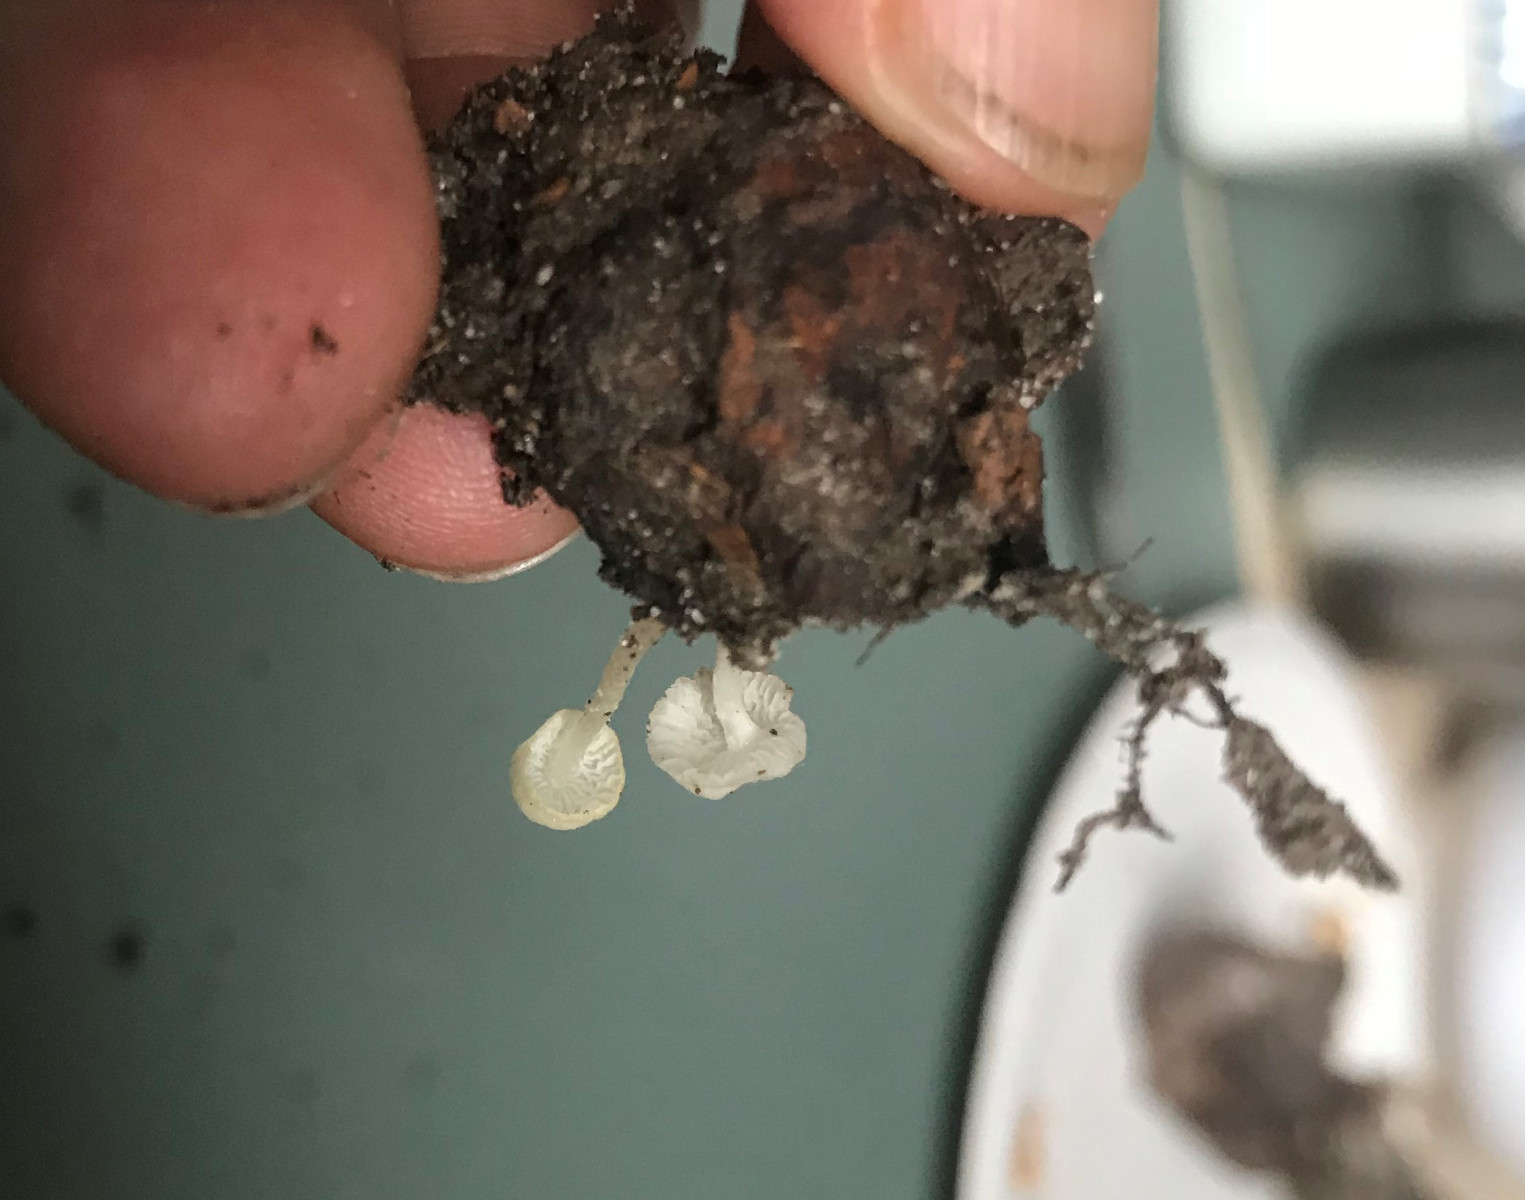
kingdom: Fungi
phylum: Basidiomycota
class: Agaricomycetes
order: Agaricales
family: Tricholomataceae
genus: Delicatula
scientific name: Delicatula integrella
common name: slørhuesvamp
